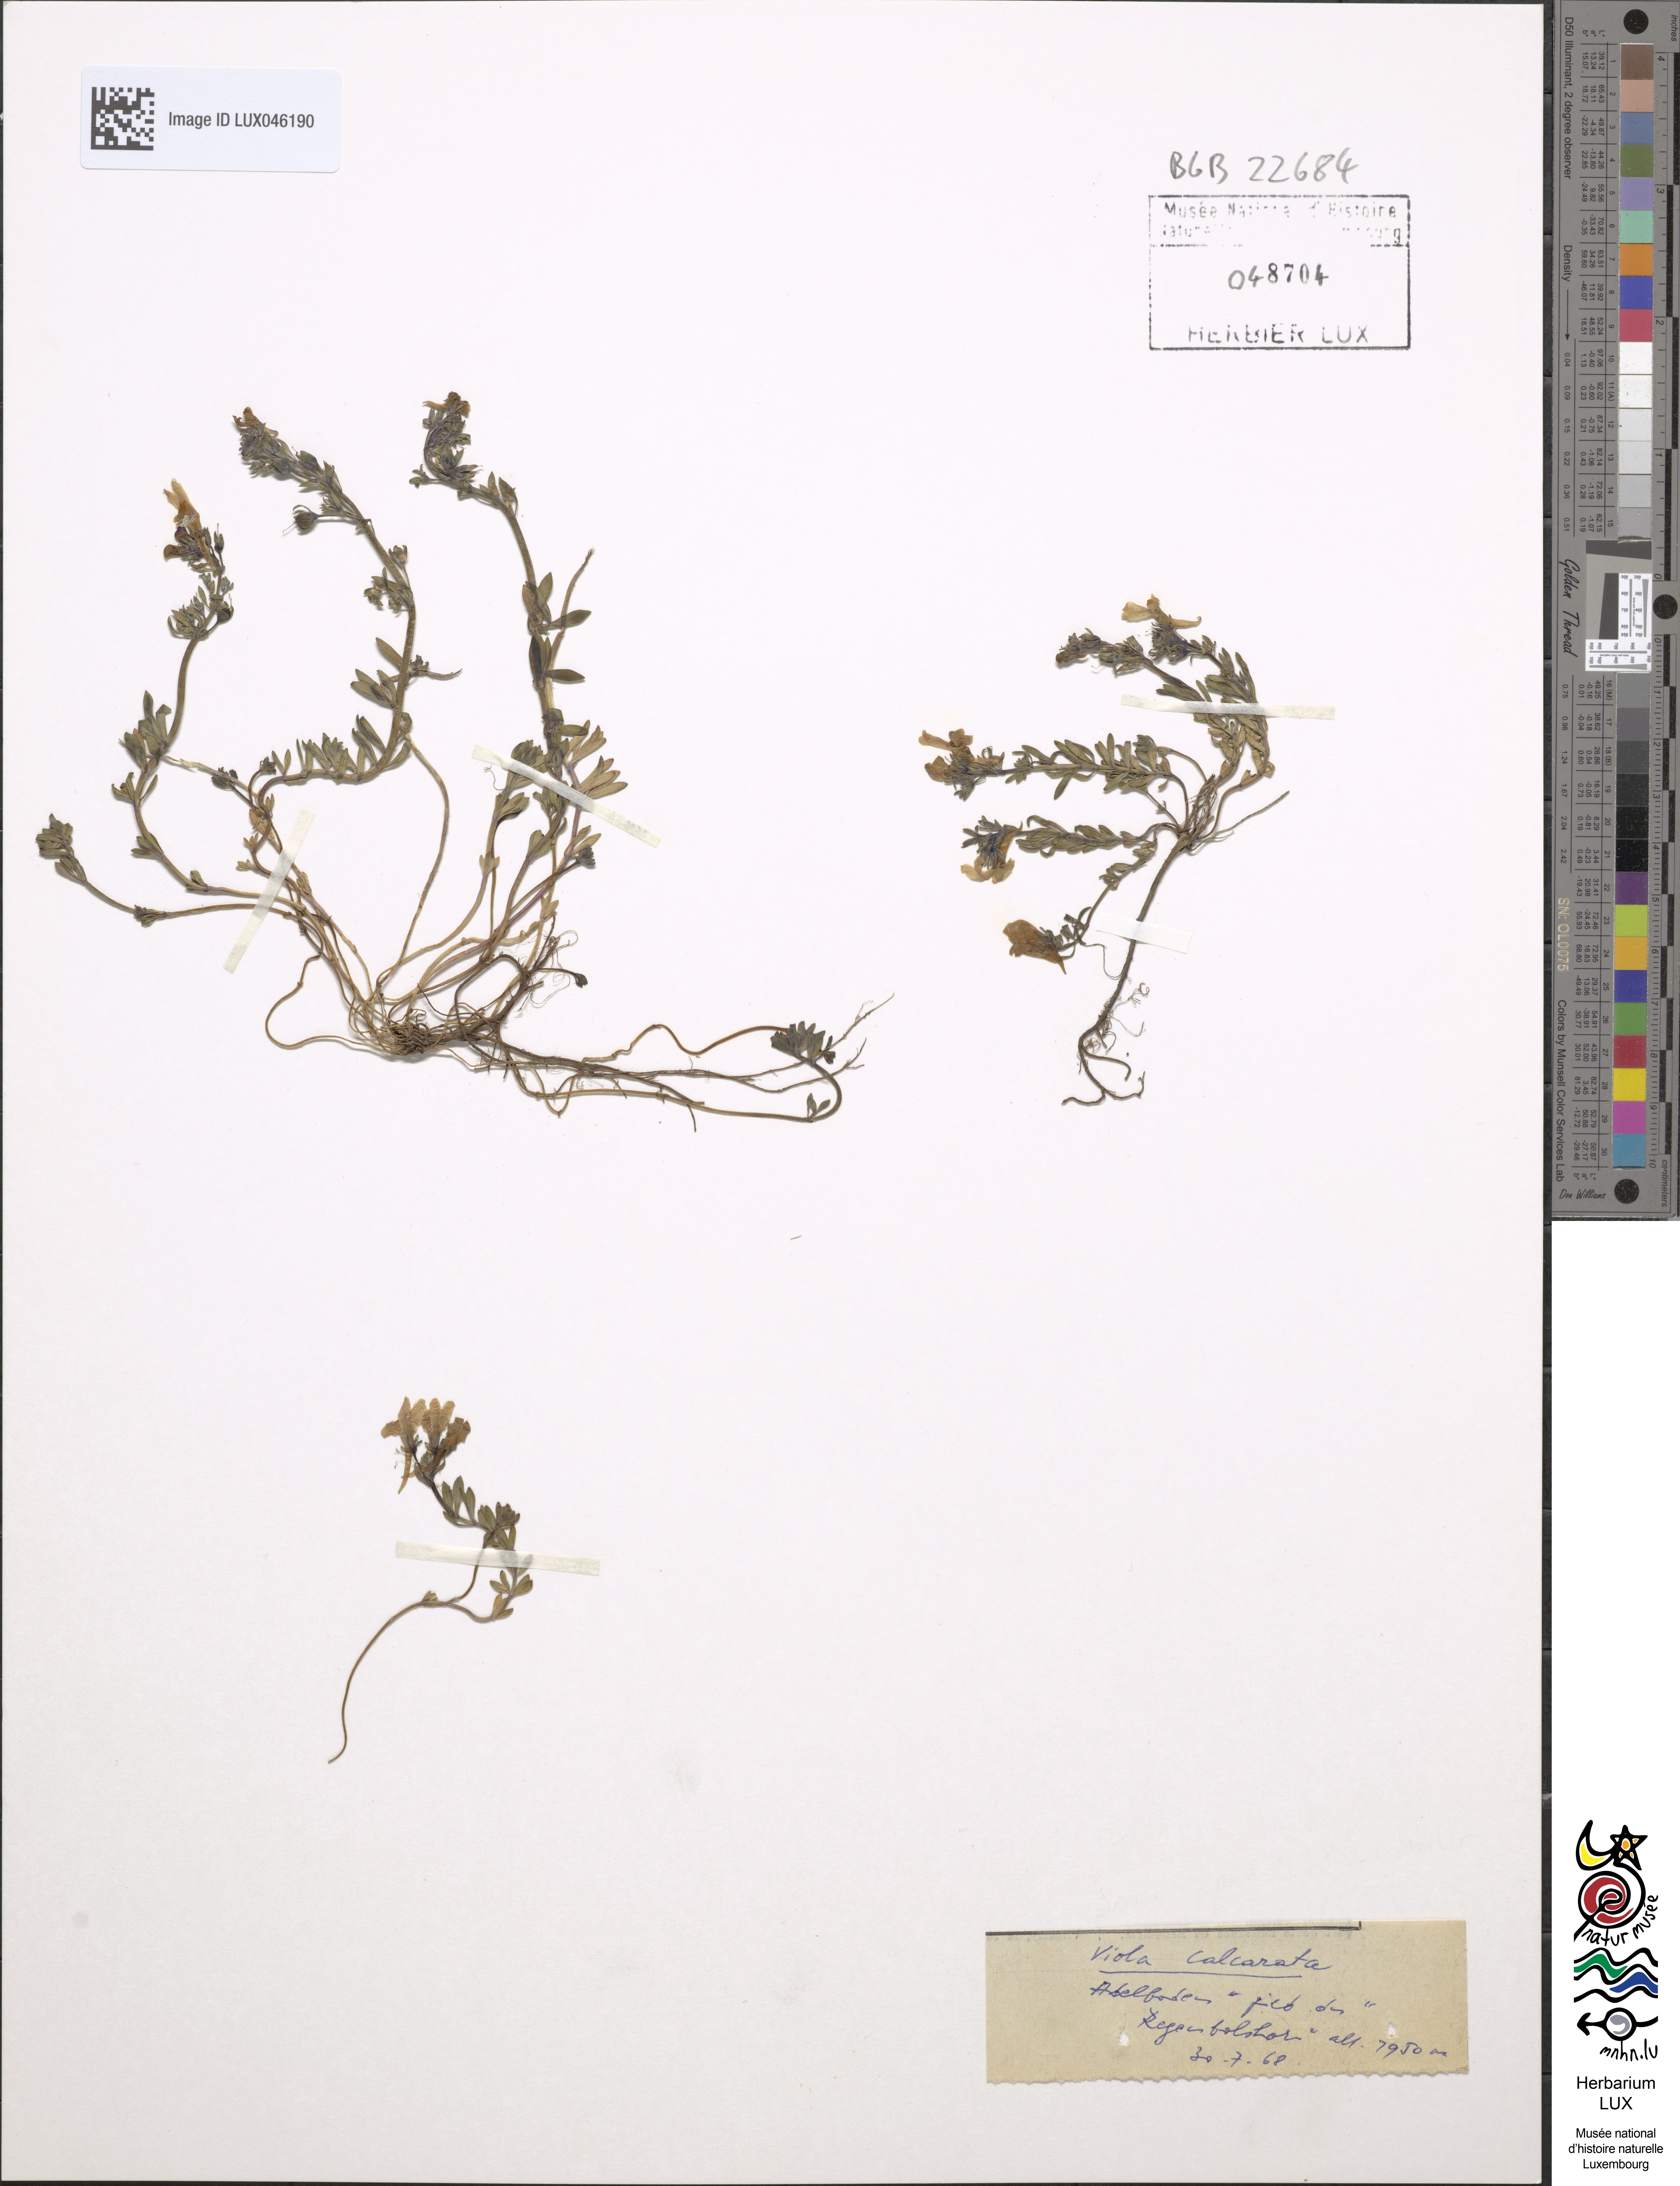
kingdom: Plantae
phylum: Tracheophyta
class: Magnoliopsida
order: Malpighiales
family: Violaceae
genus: Viola
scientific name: Viola calcarata
